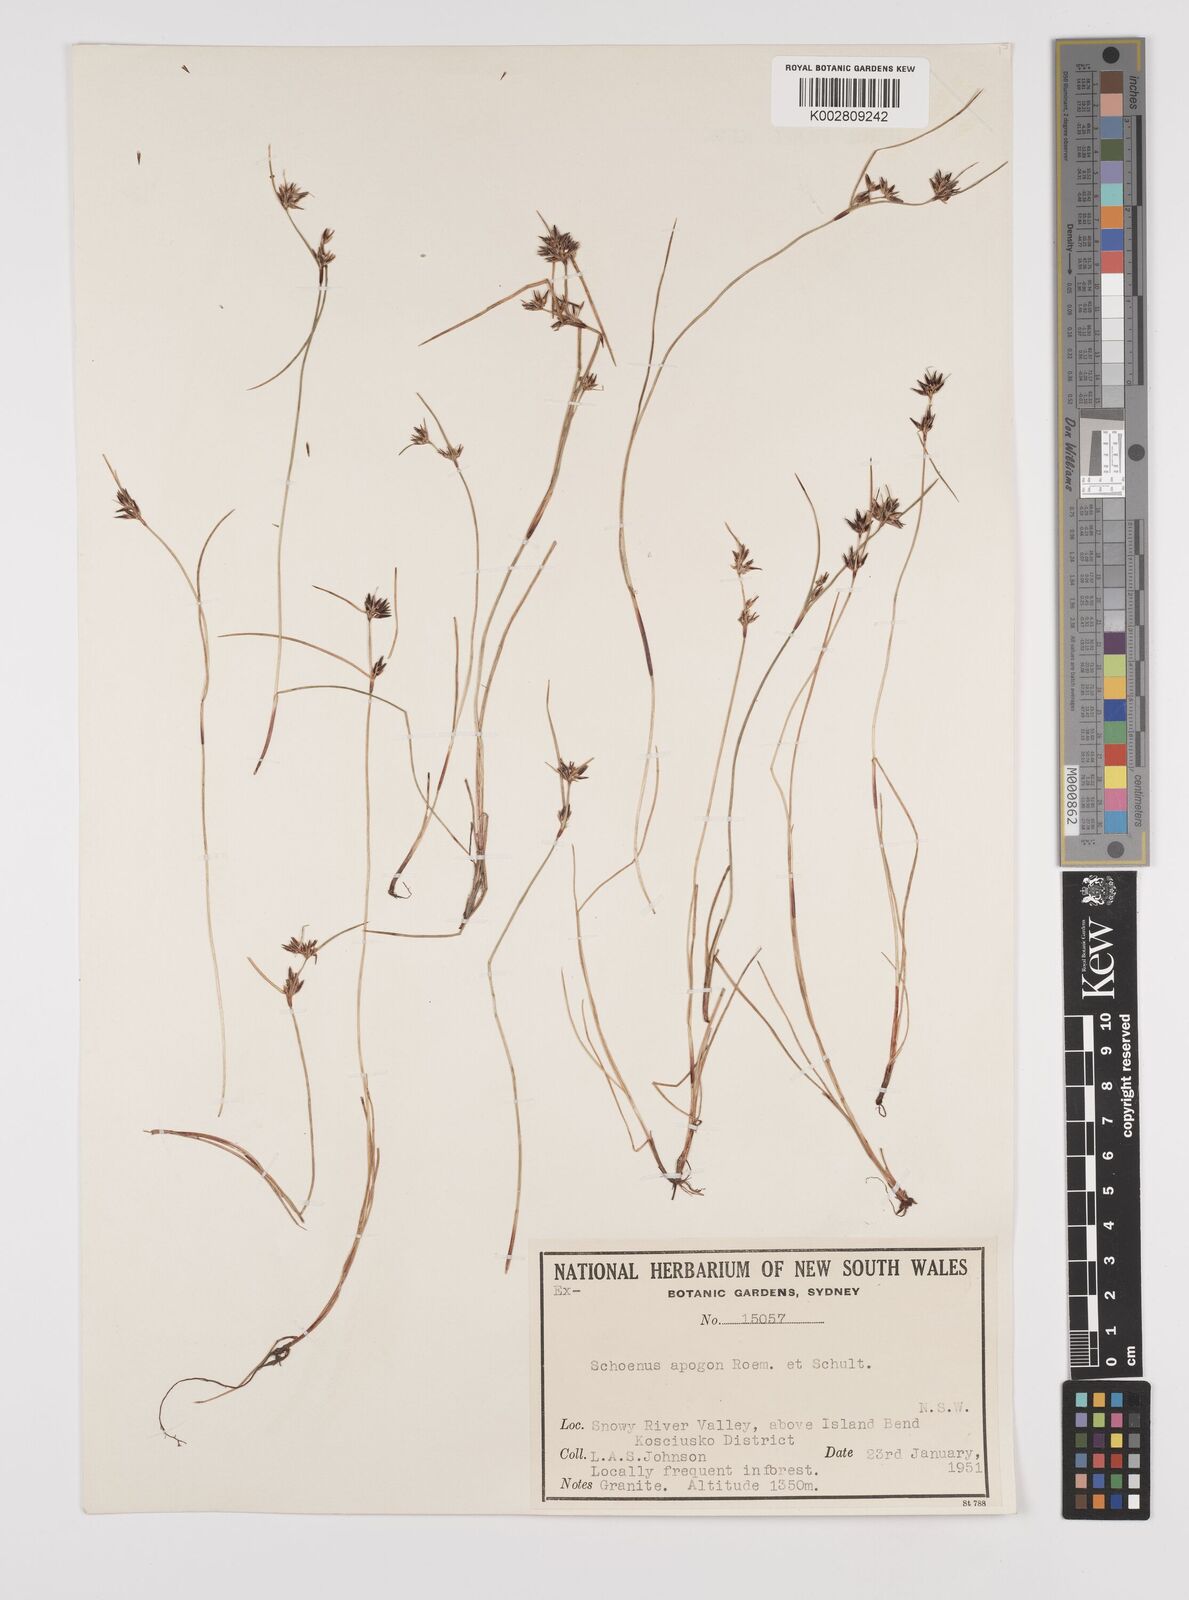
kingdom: Plantae
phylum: Tracheophyta
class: Liliopsida
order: Poales
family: Cyperaceae
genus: Schoenus
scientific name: Schoenus apogon
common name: Smooth bogrush
